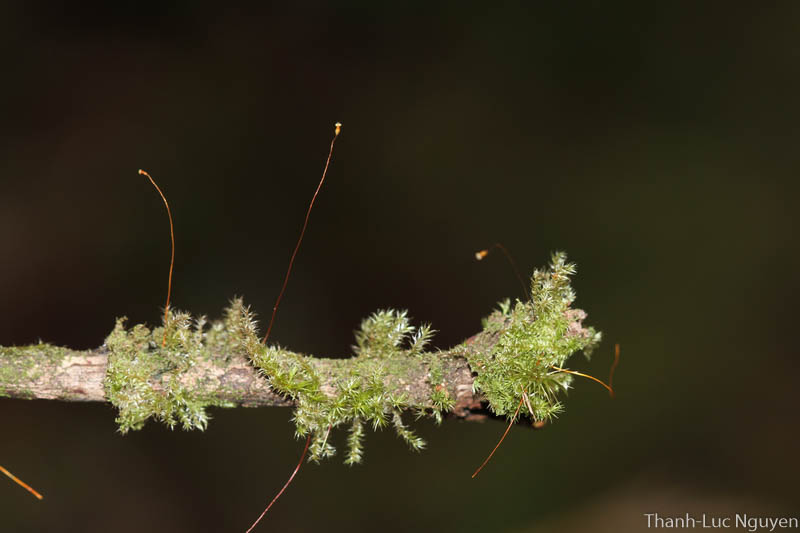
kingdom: Plantae
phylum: Bryophyta
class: Bryopsida
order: Hypnales
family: Pylaisiadelphaceae
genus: Taxithelium
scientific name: Taxithelium kerianum
